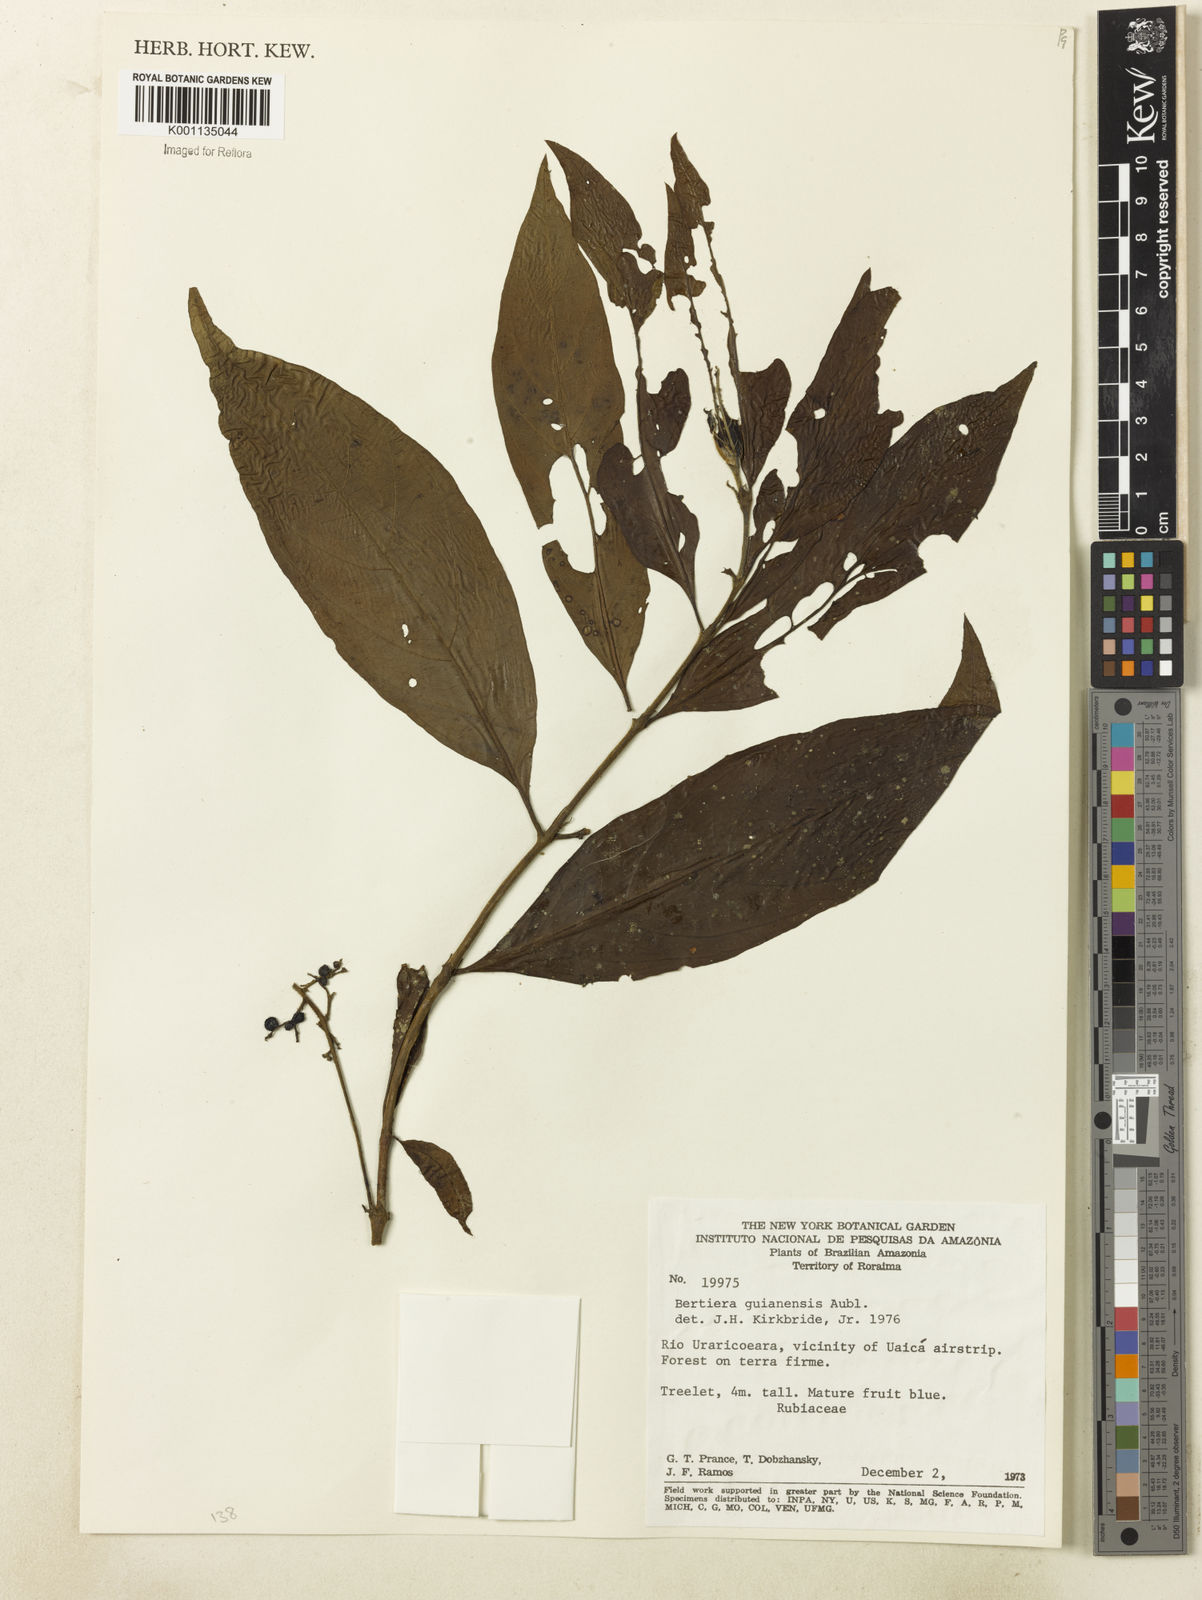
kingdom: Plantae
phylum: Tracheophyta
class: Magnoliopsida
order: Gentianales
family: Rubiaceae
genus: Bertiera
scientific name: Bertiera guianensis
